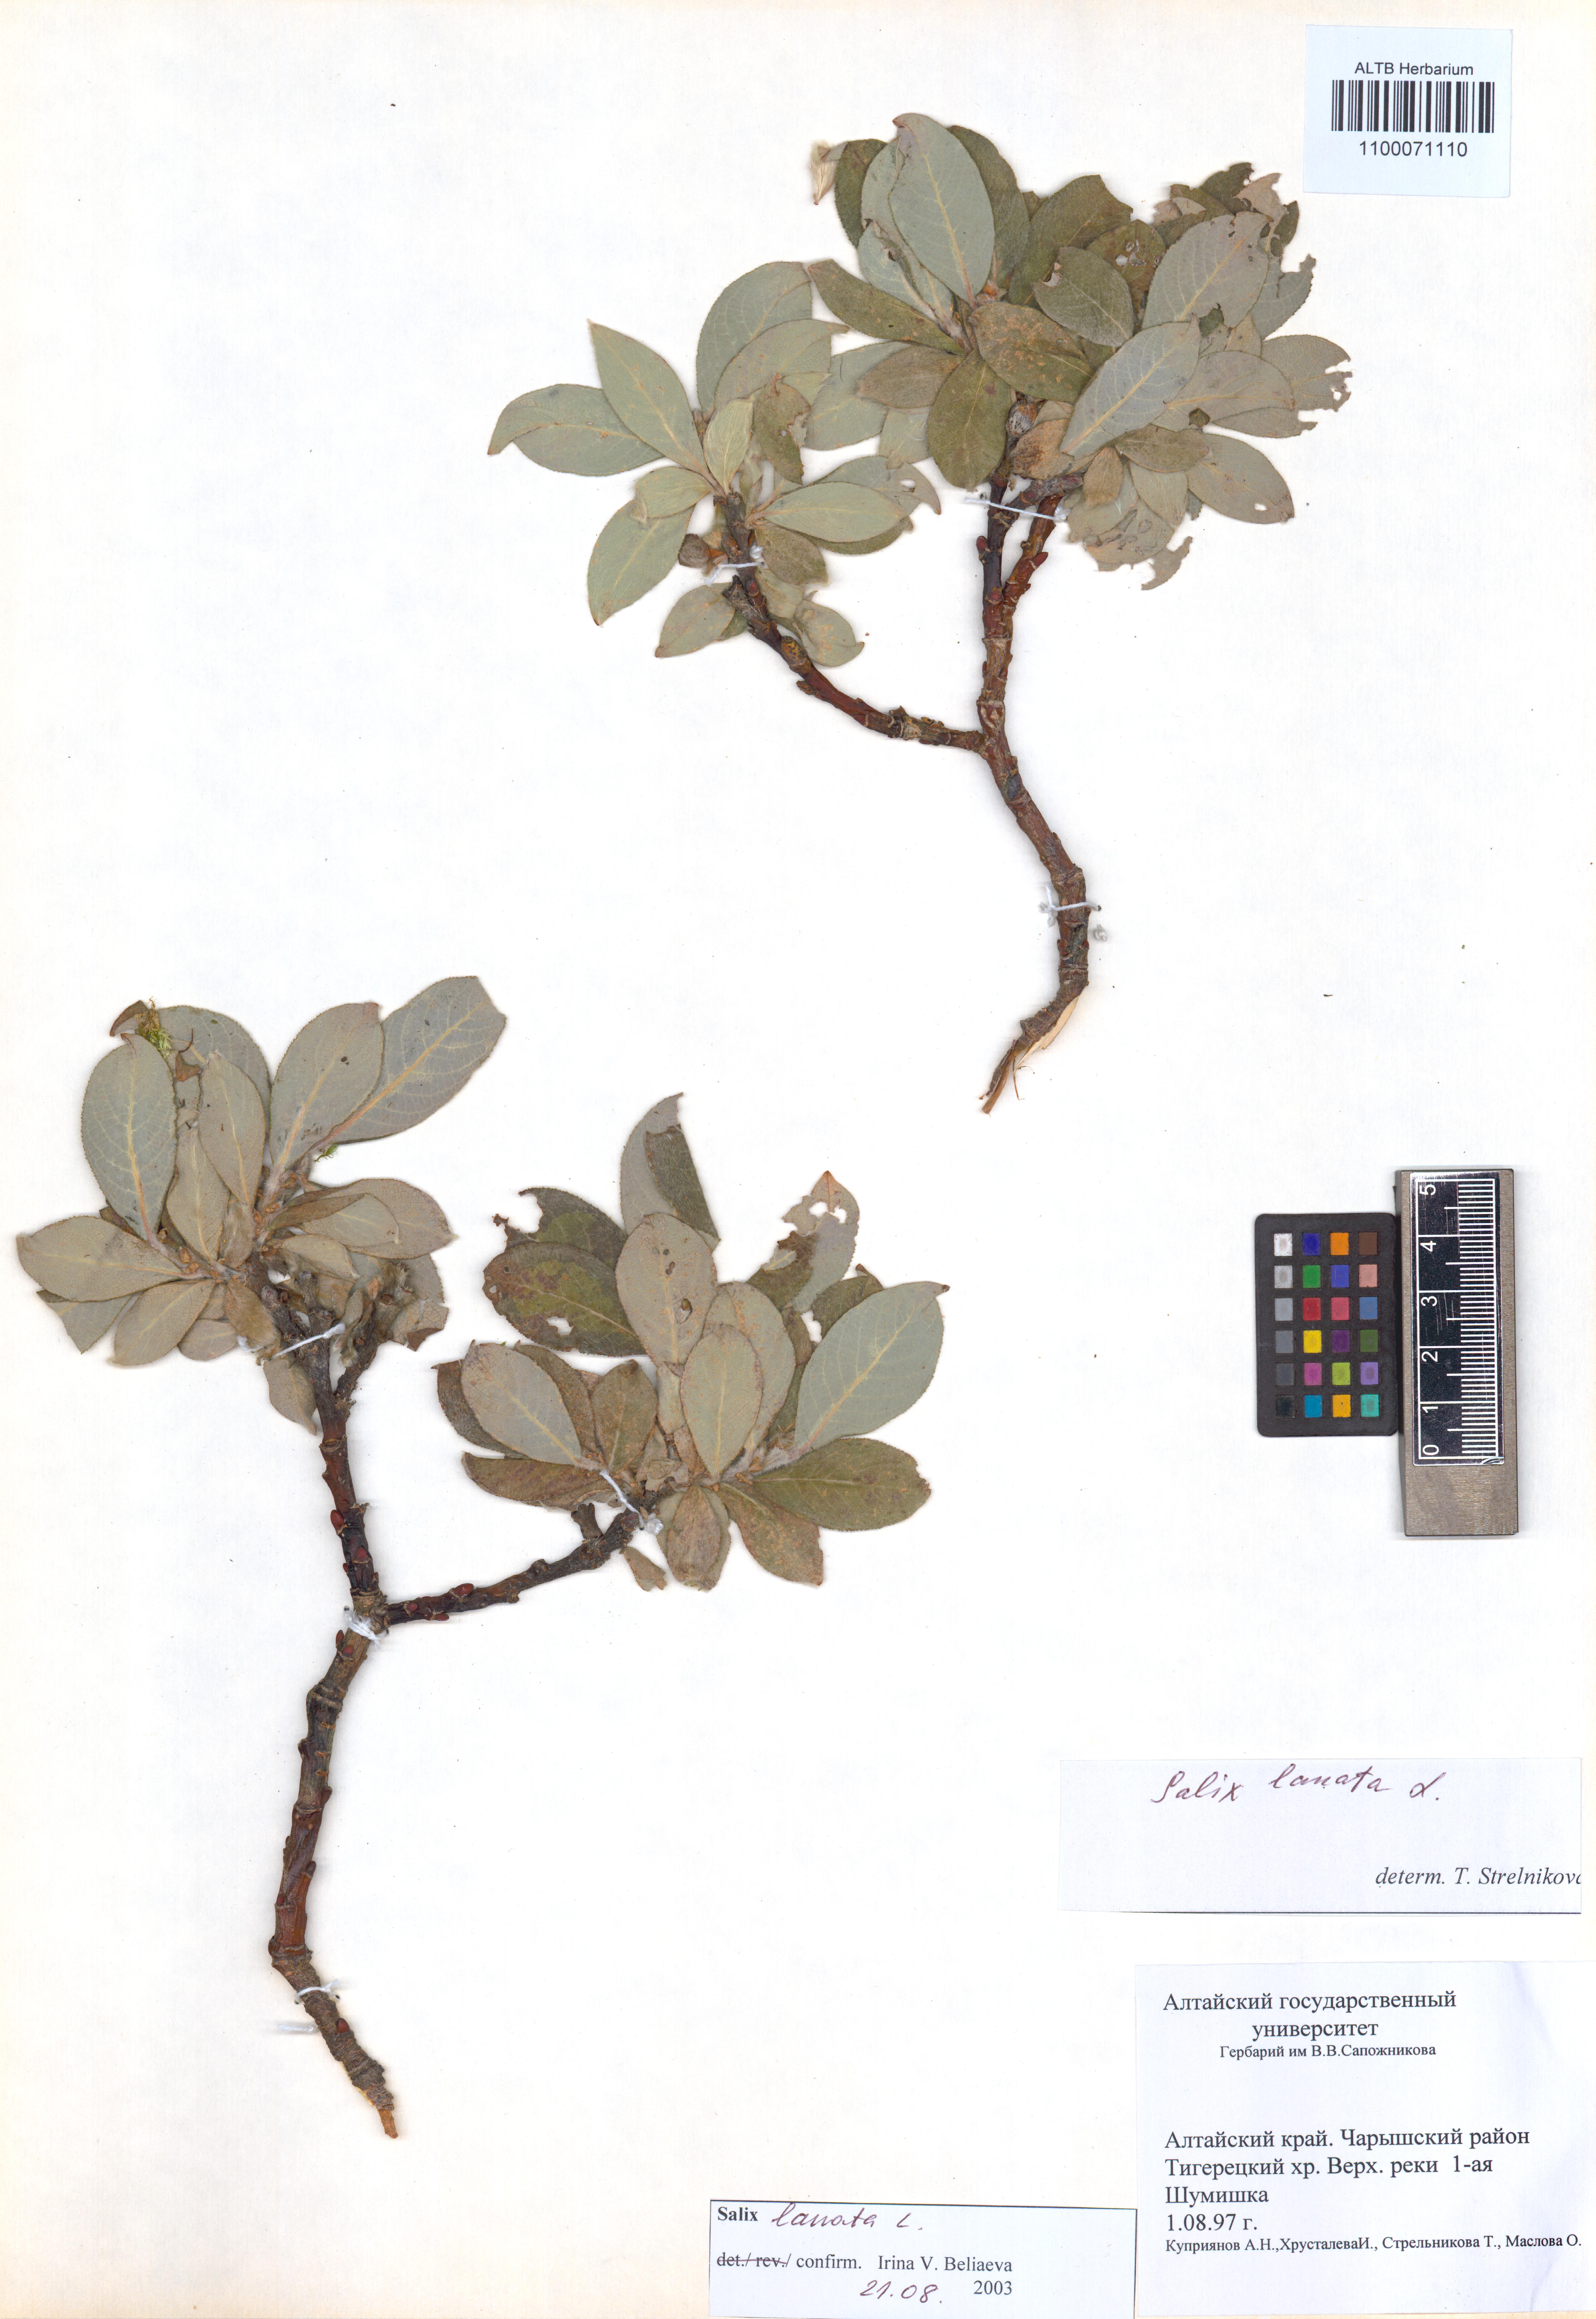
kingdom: Plantae
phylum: Tracheophyta
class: Magnoliopsida
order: Malpighiales
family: Salicaceae
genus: Salix
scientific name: Salix lanata
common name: Woolly willow
